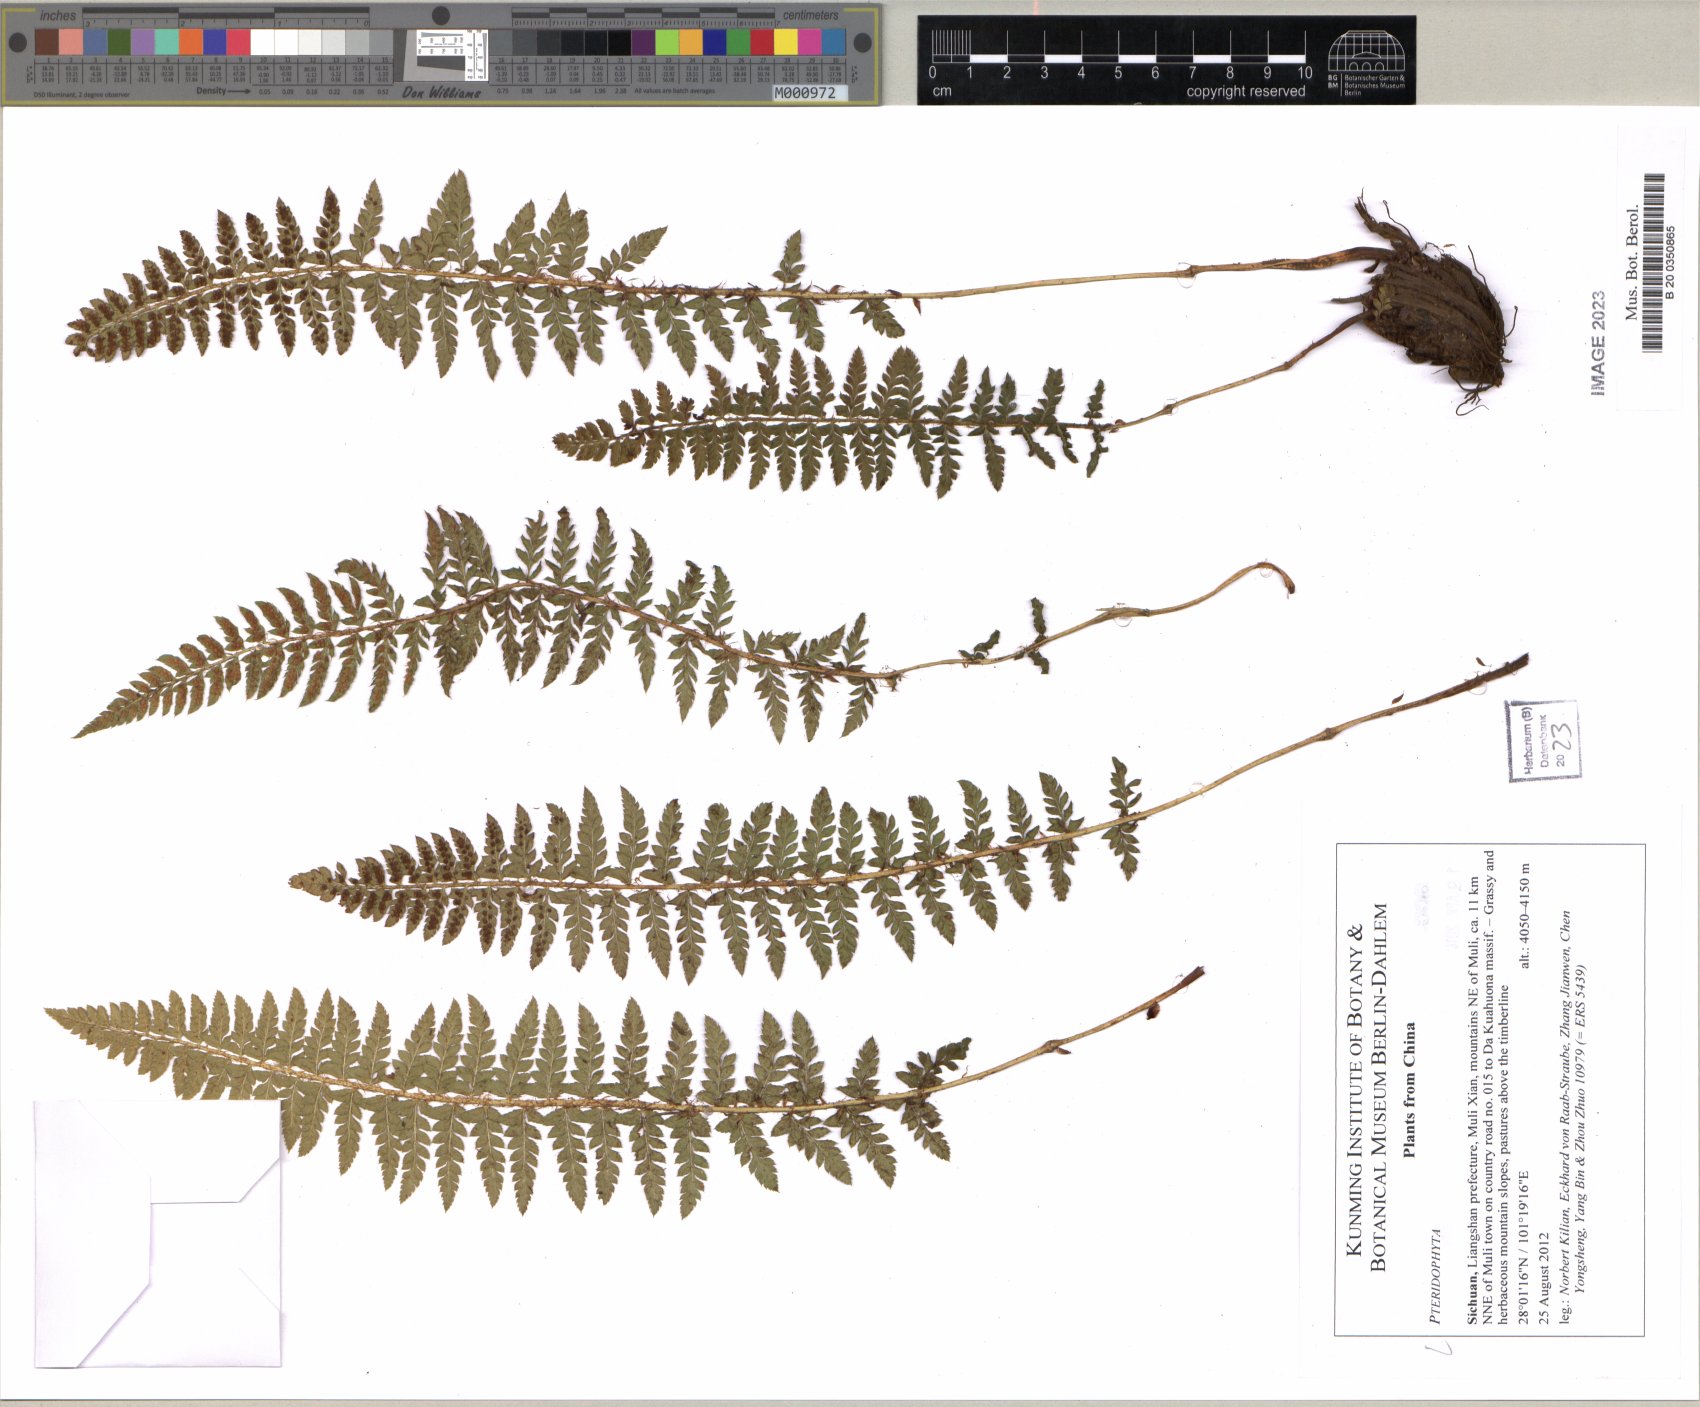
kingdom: Plantae
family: Pteridophyta
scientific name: Pteridophyta
